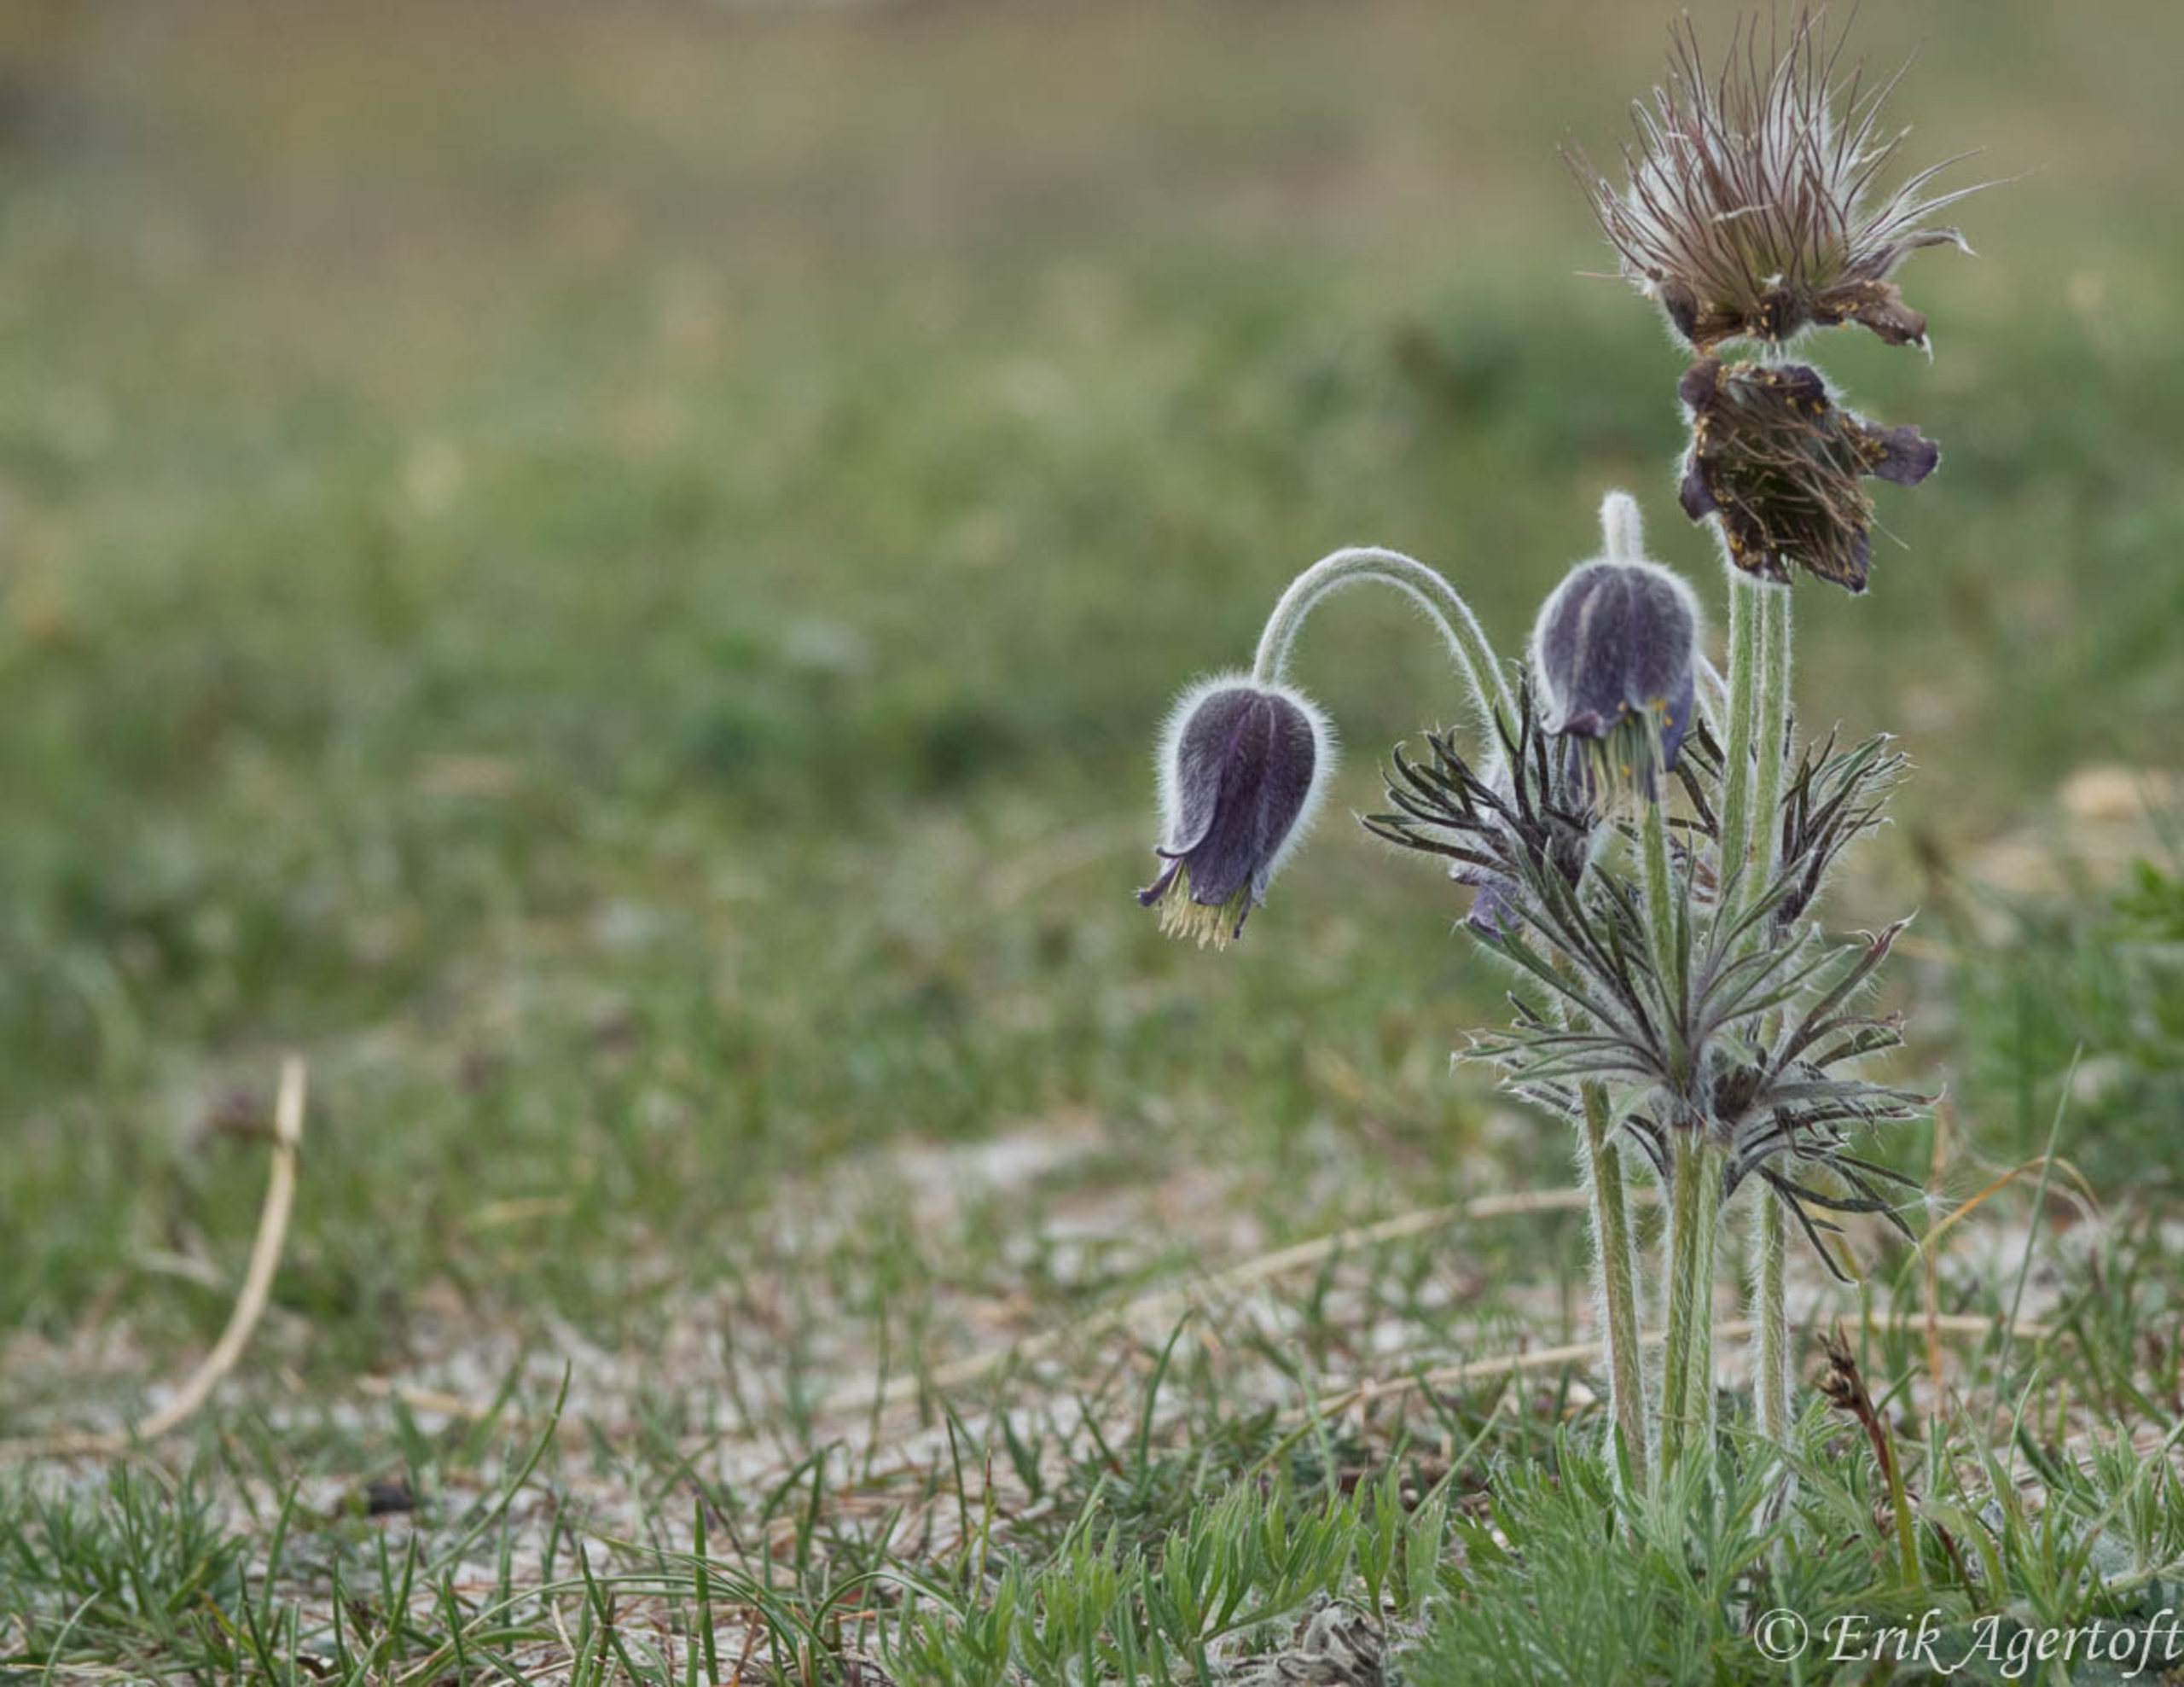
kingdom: Plantae
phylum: Tracheophyta
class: Magnoliopsida
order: Ranunculales
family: Ranunculaceae
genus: Pulsatilla
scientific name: Pulsatilla pratensis
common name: Nikkende kobjælde
